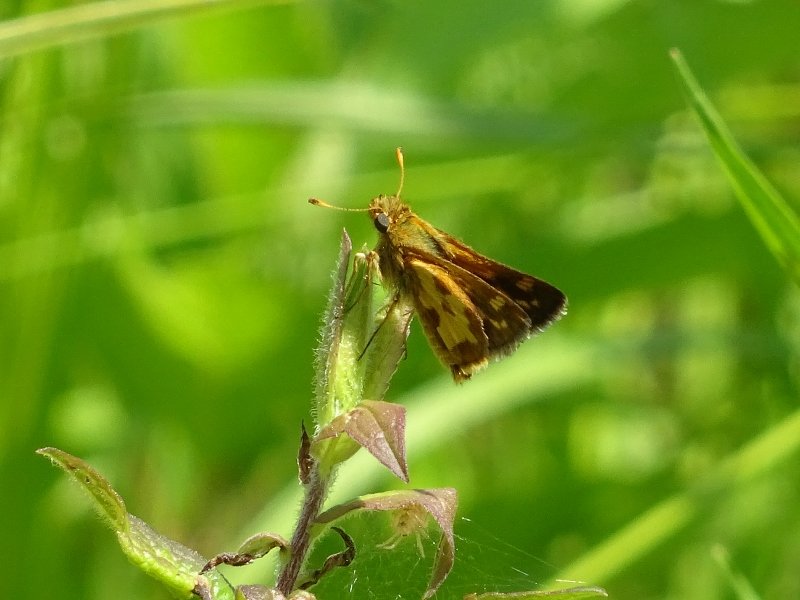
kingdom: Animalia
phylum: Arthropoda
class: Insecta
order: Lepidoptera
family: Hesperiidae
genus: Polites
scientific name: Polites coras
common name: Peck's Skipper
